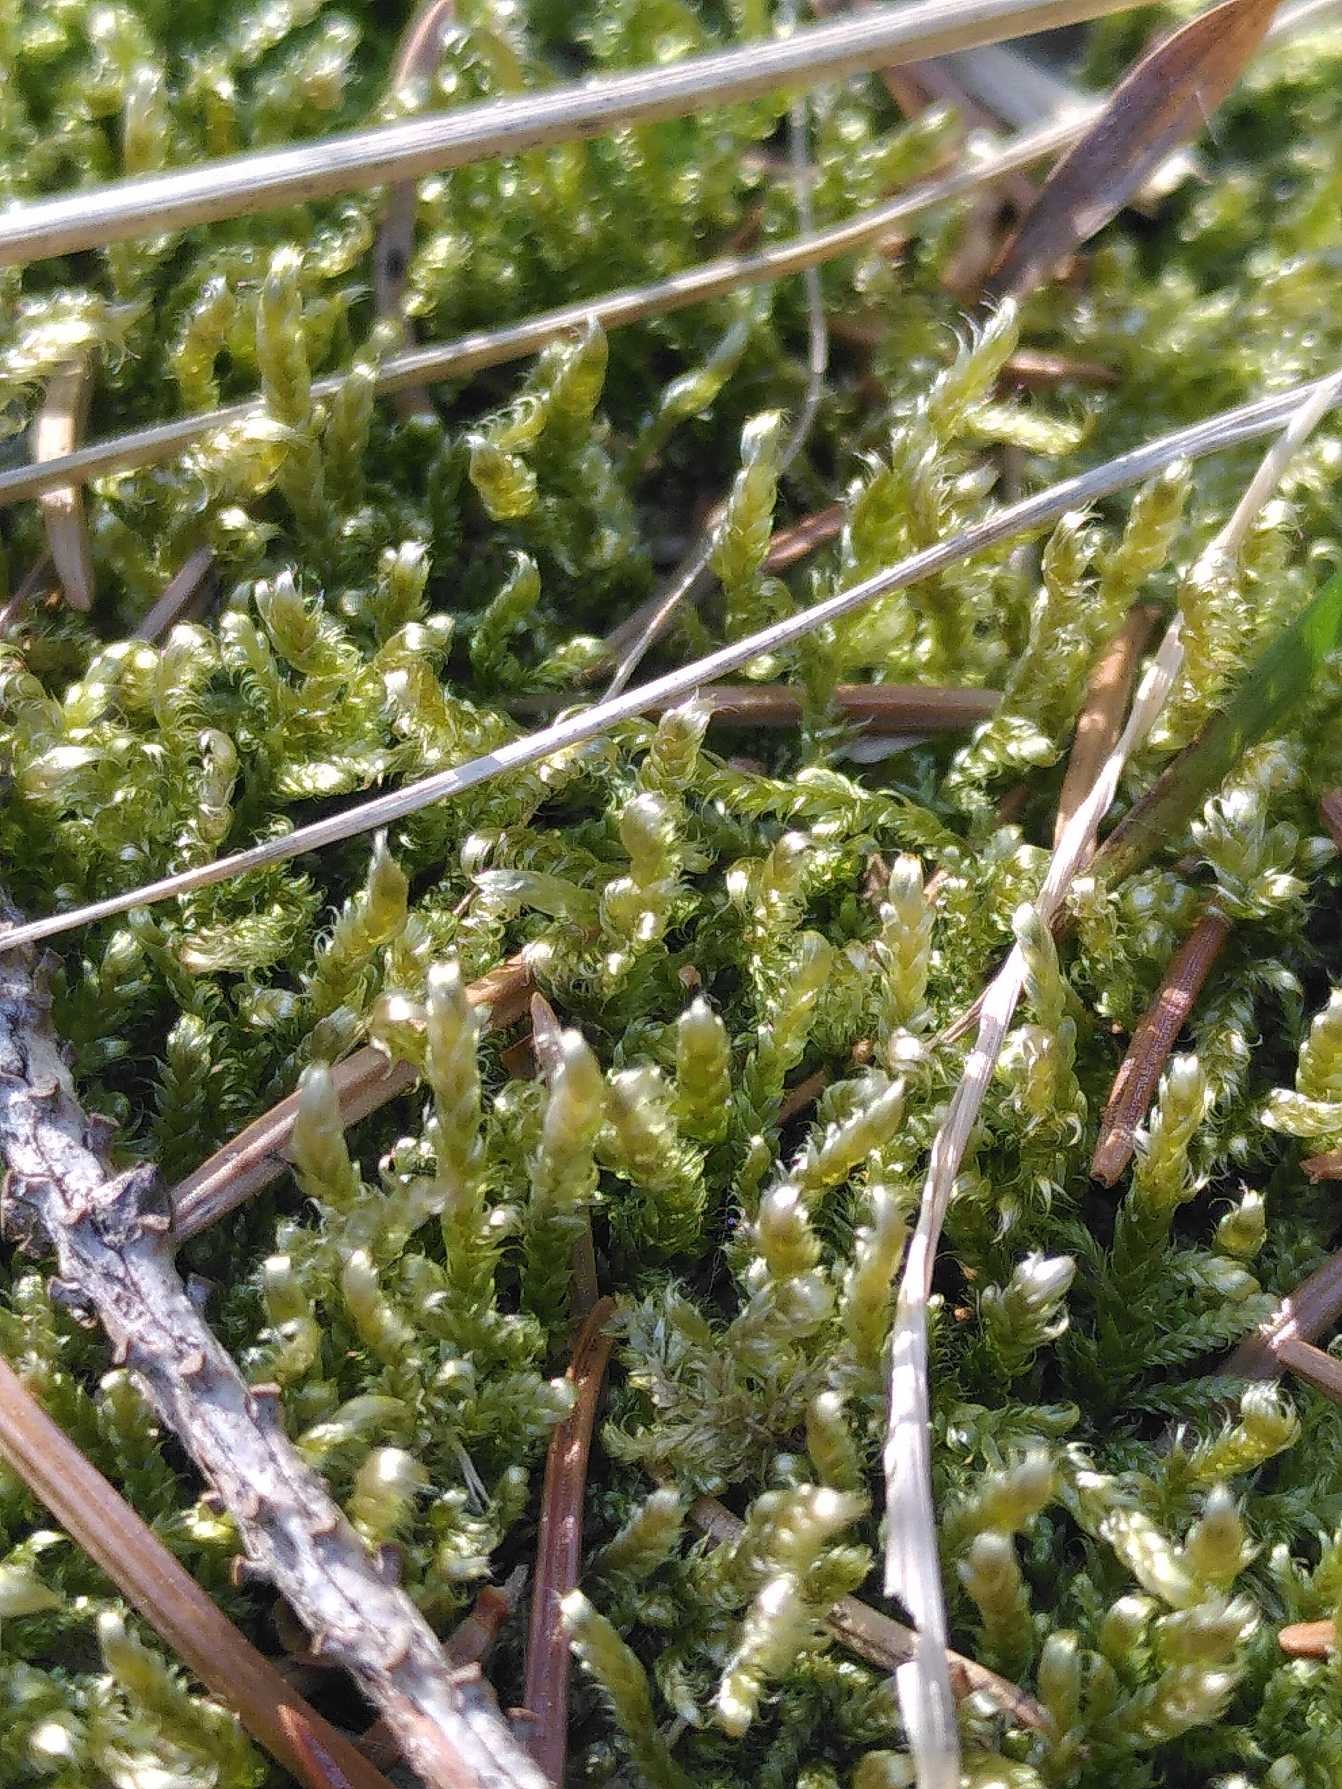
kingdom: Plantae
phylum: Bryophyta
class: Bryopsida
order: Hypnales
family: Hypnaceae
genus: Hypnum
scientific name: Hypnum jutlandicum
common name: Hede-cypresmos
